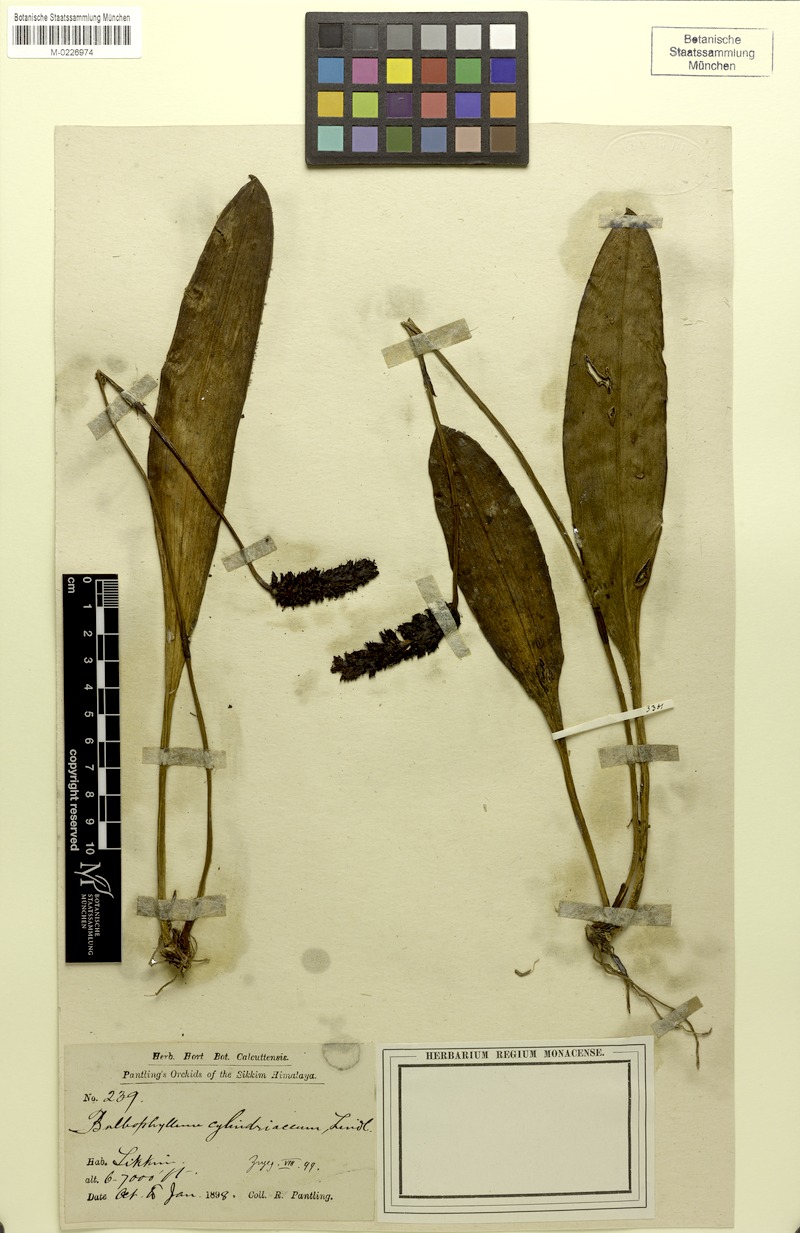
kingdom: Plantae
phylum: Tracheophyta
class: Liliopsida
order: Asparagales
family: Orchidaceae
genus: Bulbophyllum
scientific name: Bulbophyllum cylindraceum
